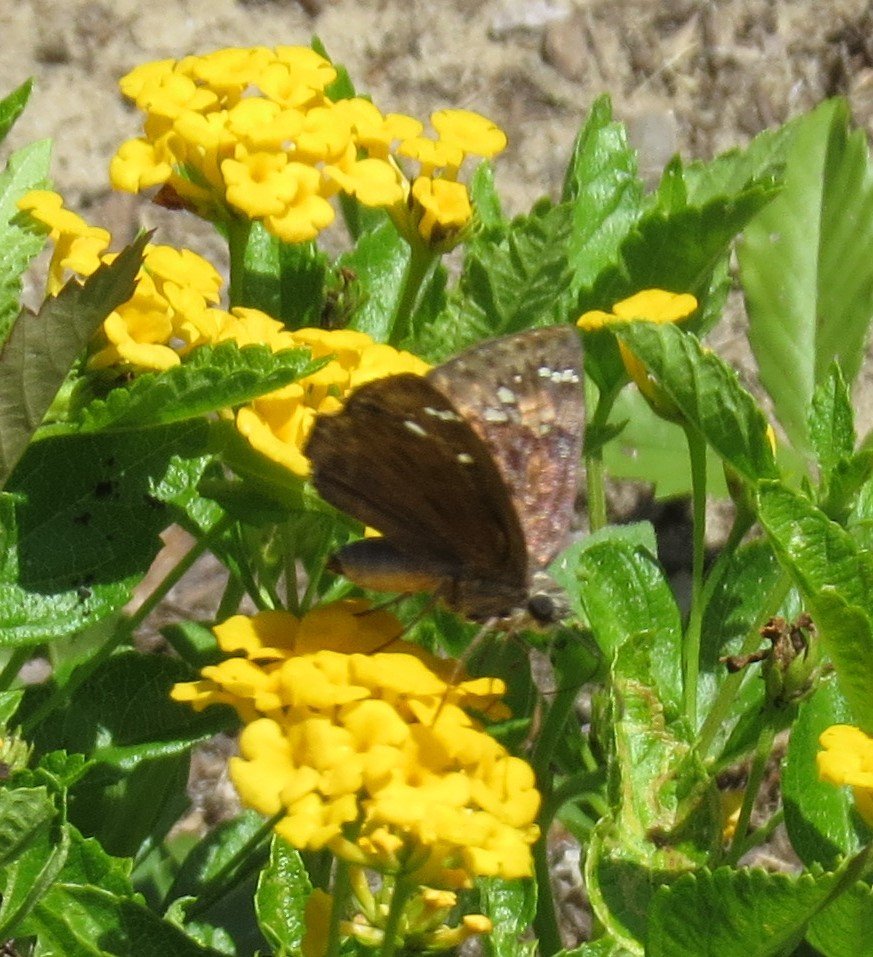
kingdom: Animalia
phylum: Arthropoda
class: Insecta
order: Lepidoptera
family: Hesperiidae
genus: Gesta
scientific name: Gesta
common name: Horace's Duskywing
